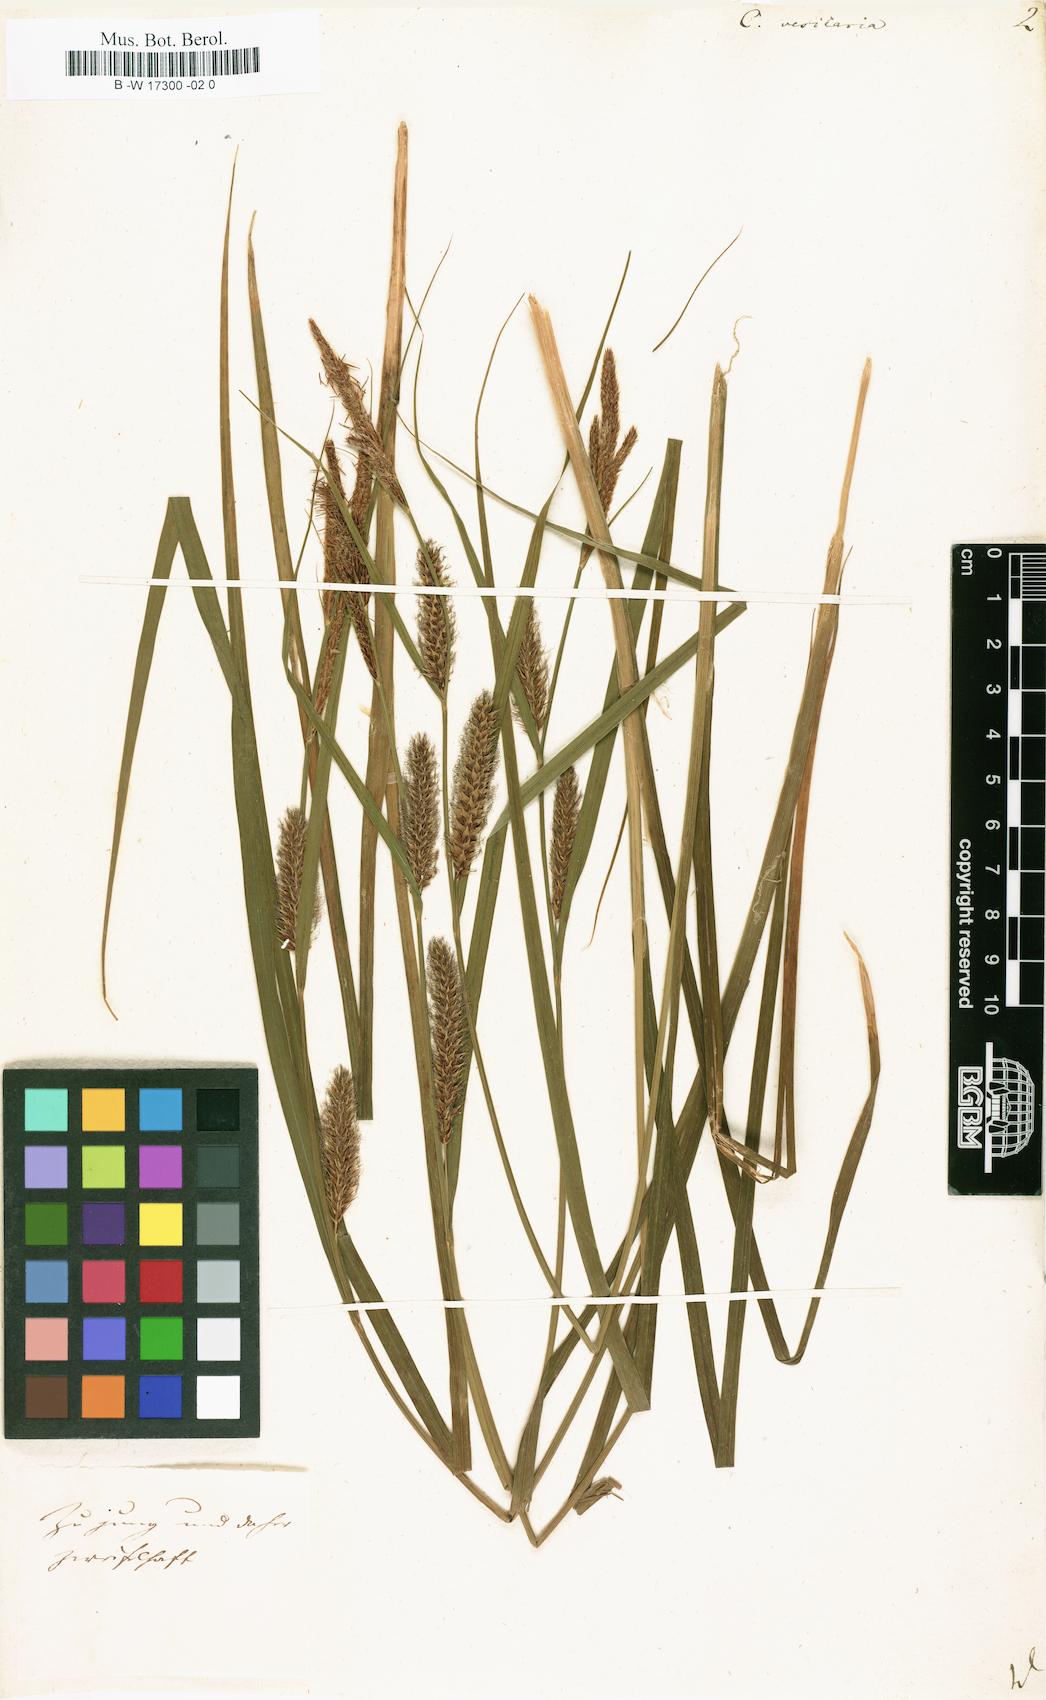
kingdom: Plantae
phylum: Tracheophyta
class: Liliopsida
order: Poales
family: Cyperaceae
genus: Carex
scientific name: Carex vesicaria
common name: Bladder-sedge
